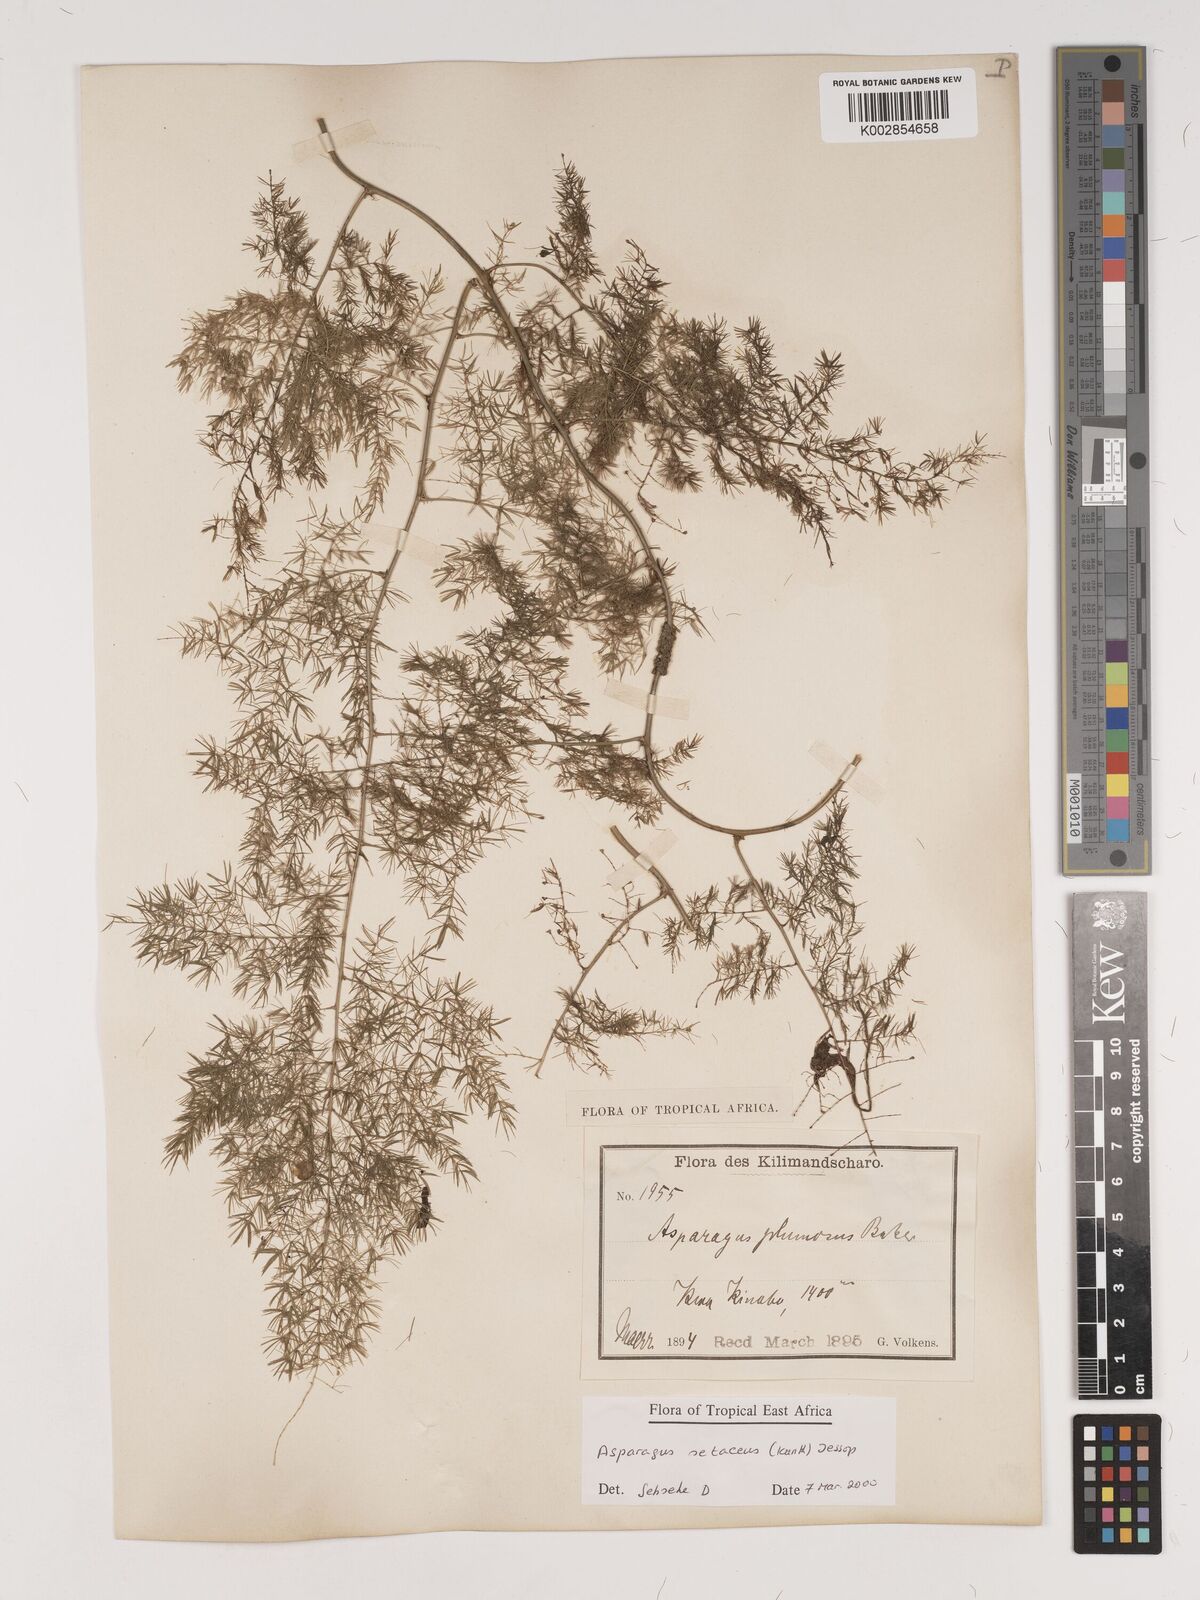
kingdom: Plantae
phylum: Tracheophyta
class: Liliopsida
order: Asparagales
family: Asparagaceae
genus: Asparagus
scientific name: Asparagus setaceus
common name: Common asparagus fern
